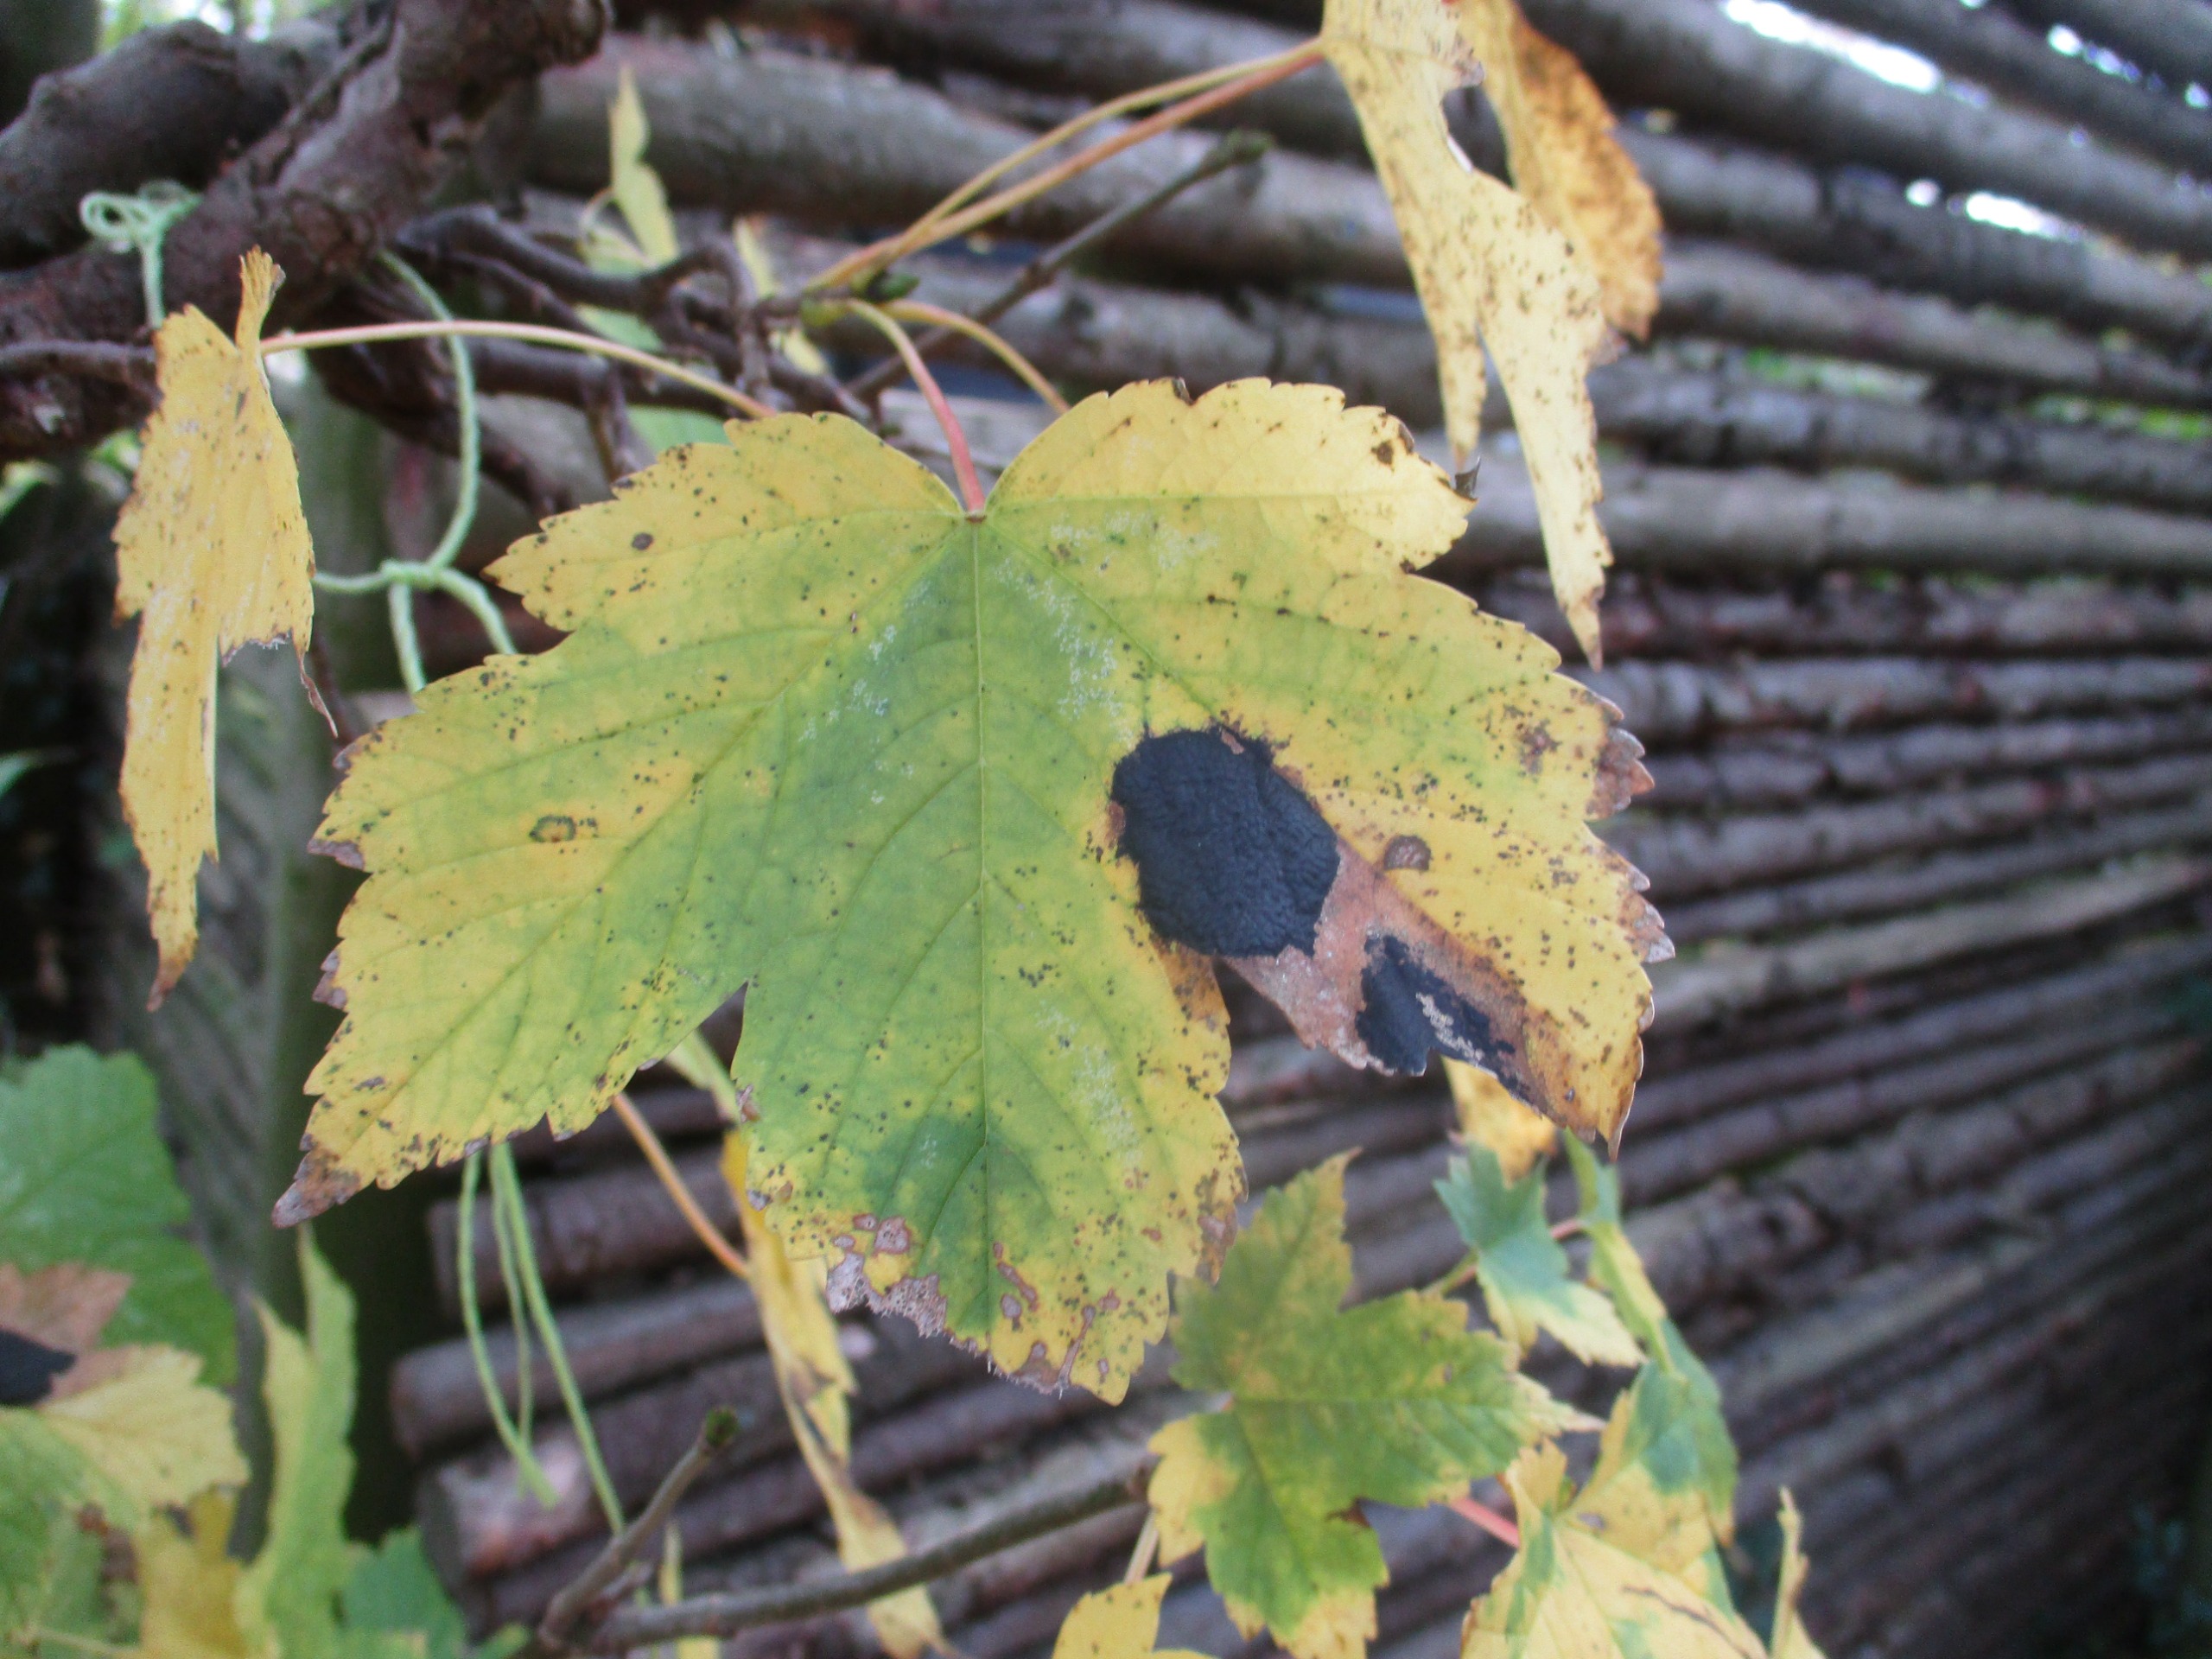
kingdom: Fungi
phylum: Ascomycota
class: Leotiomycetes
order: Rhytismatales
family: Rhytismataceae
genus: Rhytisma
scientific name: Rhytisma acerinum
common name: Ahorn-rynkeplet
